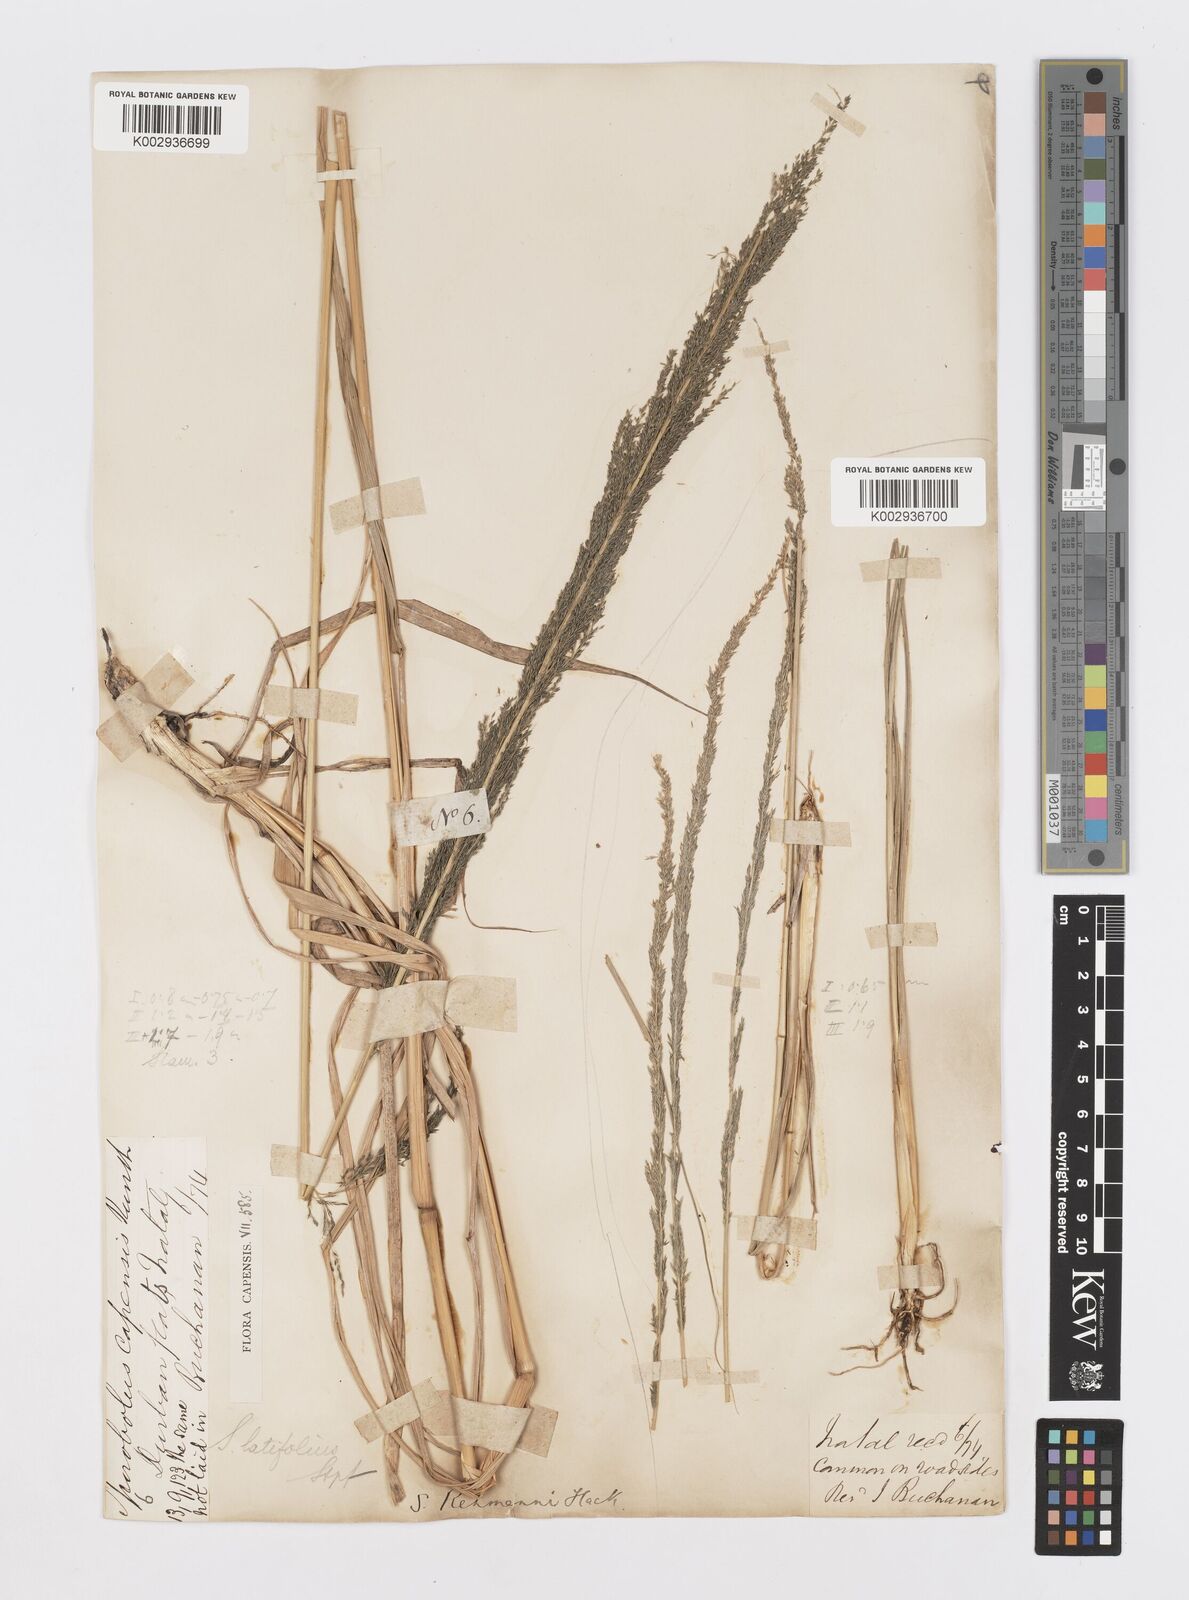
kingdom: Plantae
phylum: Tracheophyta
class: Liliopsida
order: Poales
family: Poaceae
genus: Sporobolus
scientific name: Sporobolus fimbriatus
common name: Fringed dropseed
